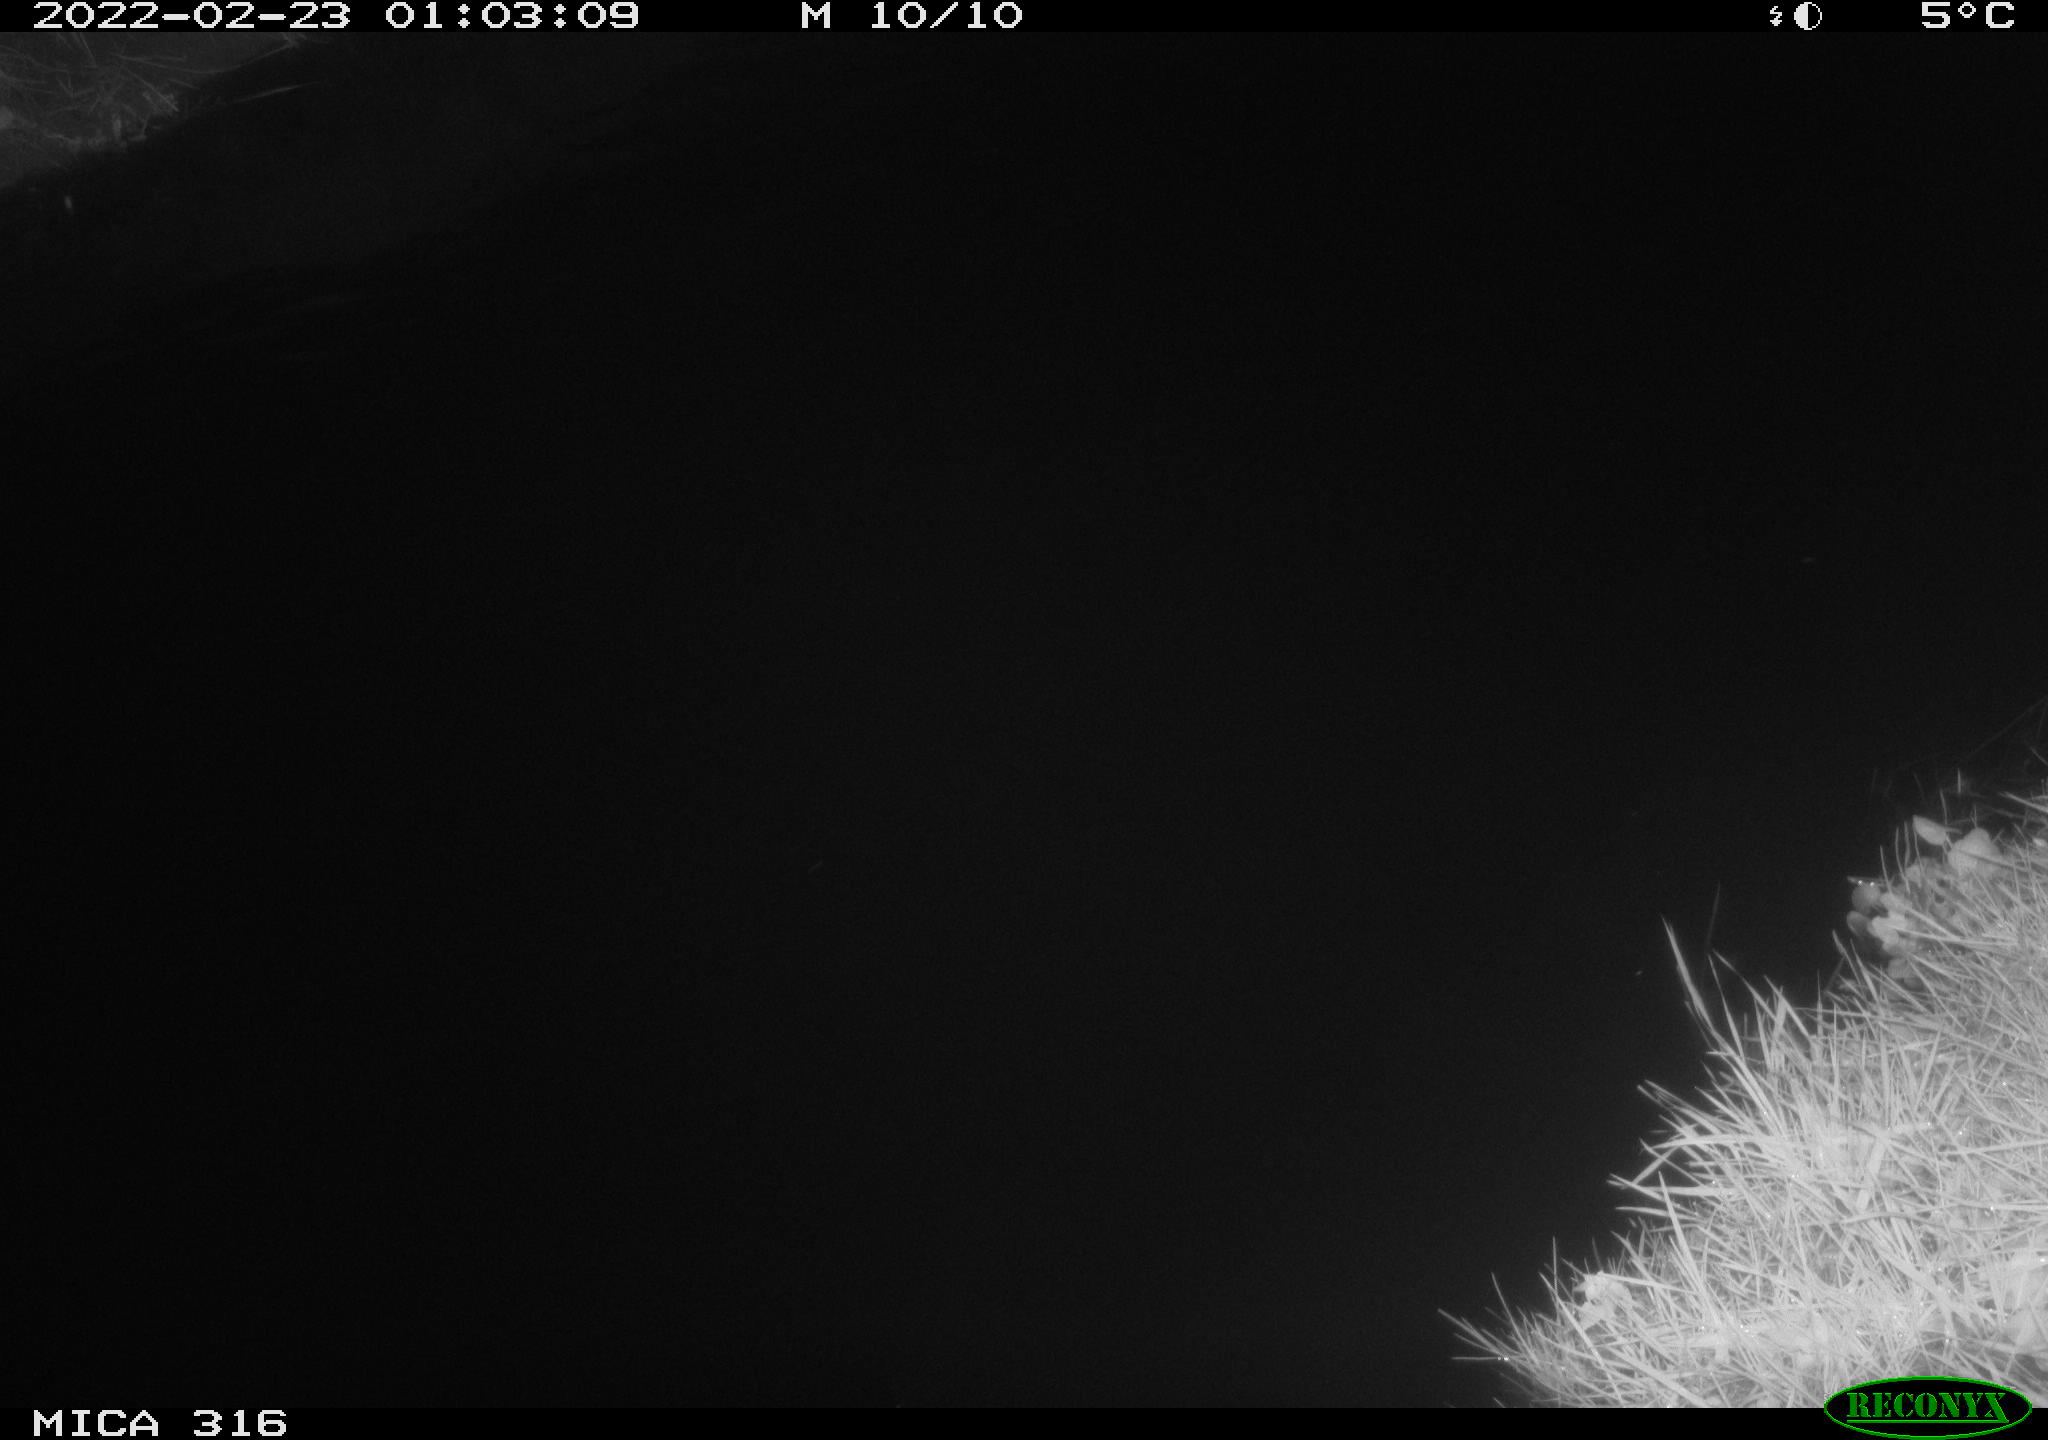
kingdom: Animalia
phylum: Chordata
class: Aves
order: Anseriformes
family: Anatidae
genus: Anas
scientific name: Anas platyrhynchos
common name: Mallard
